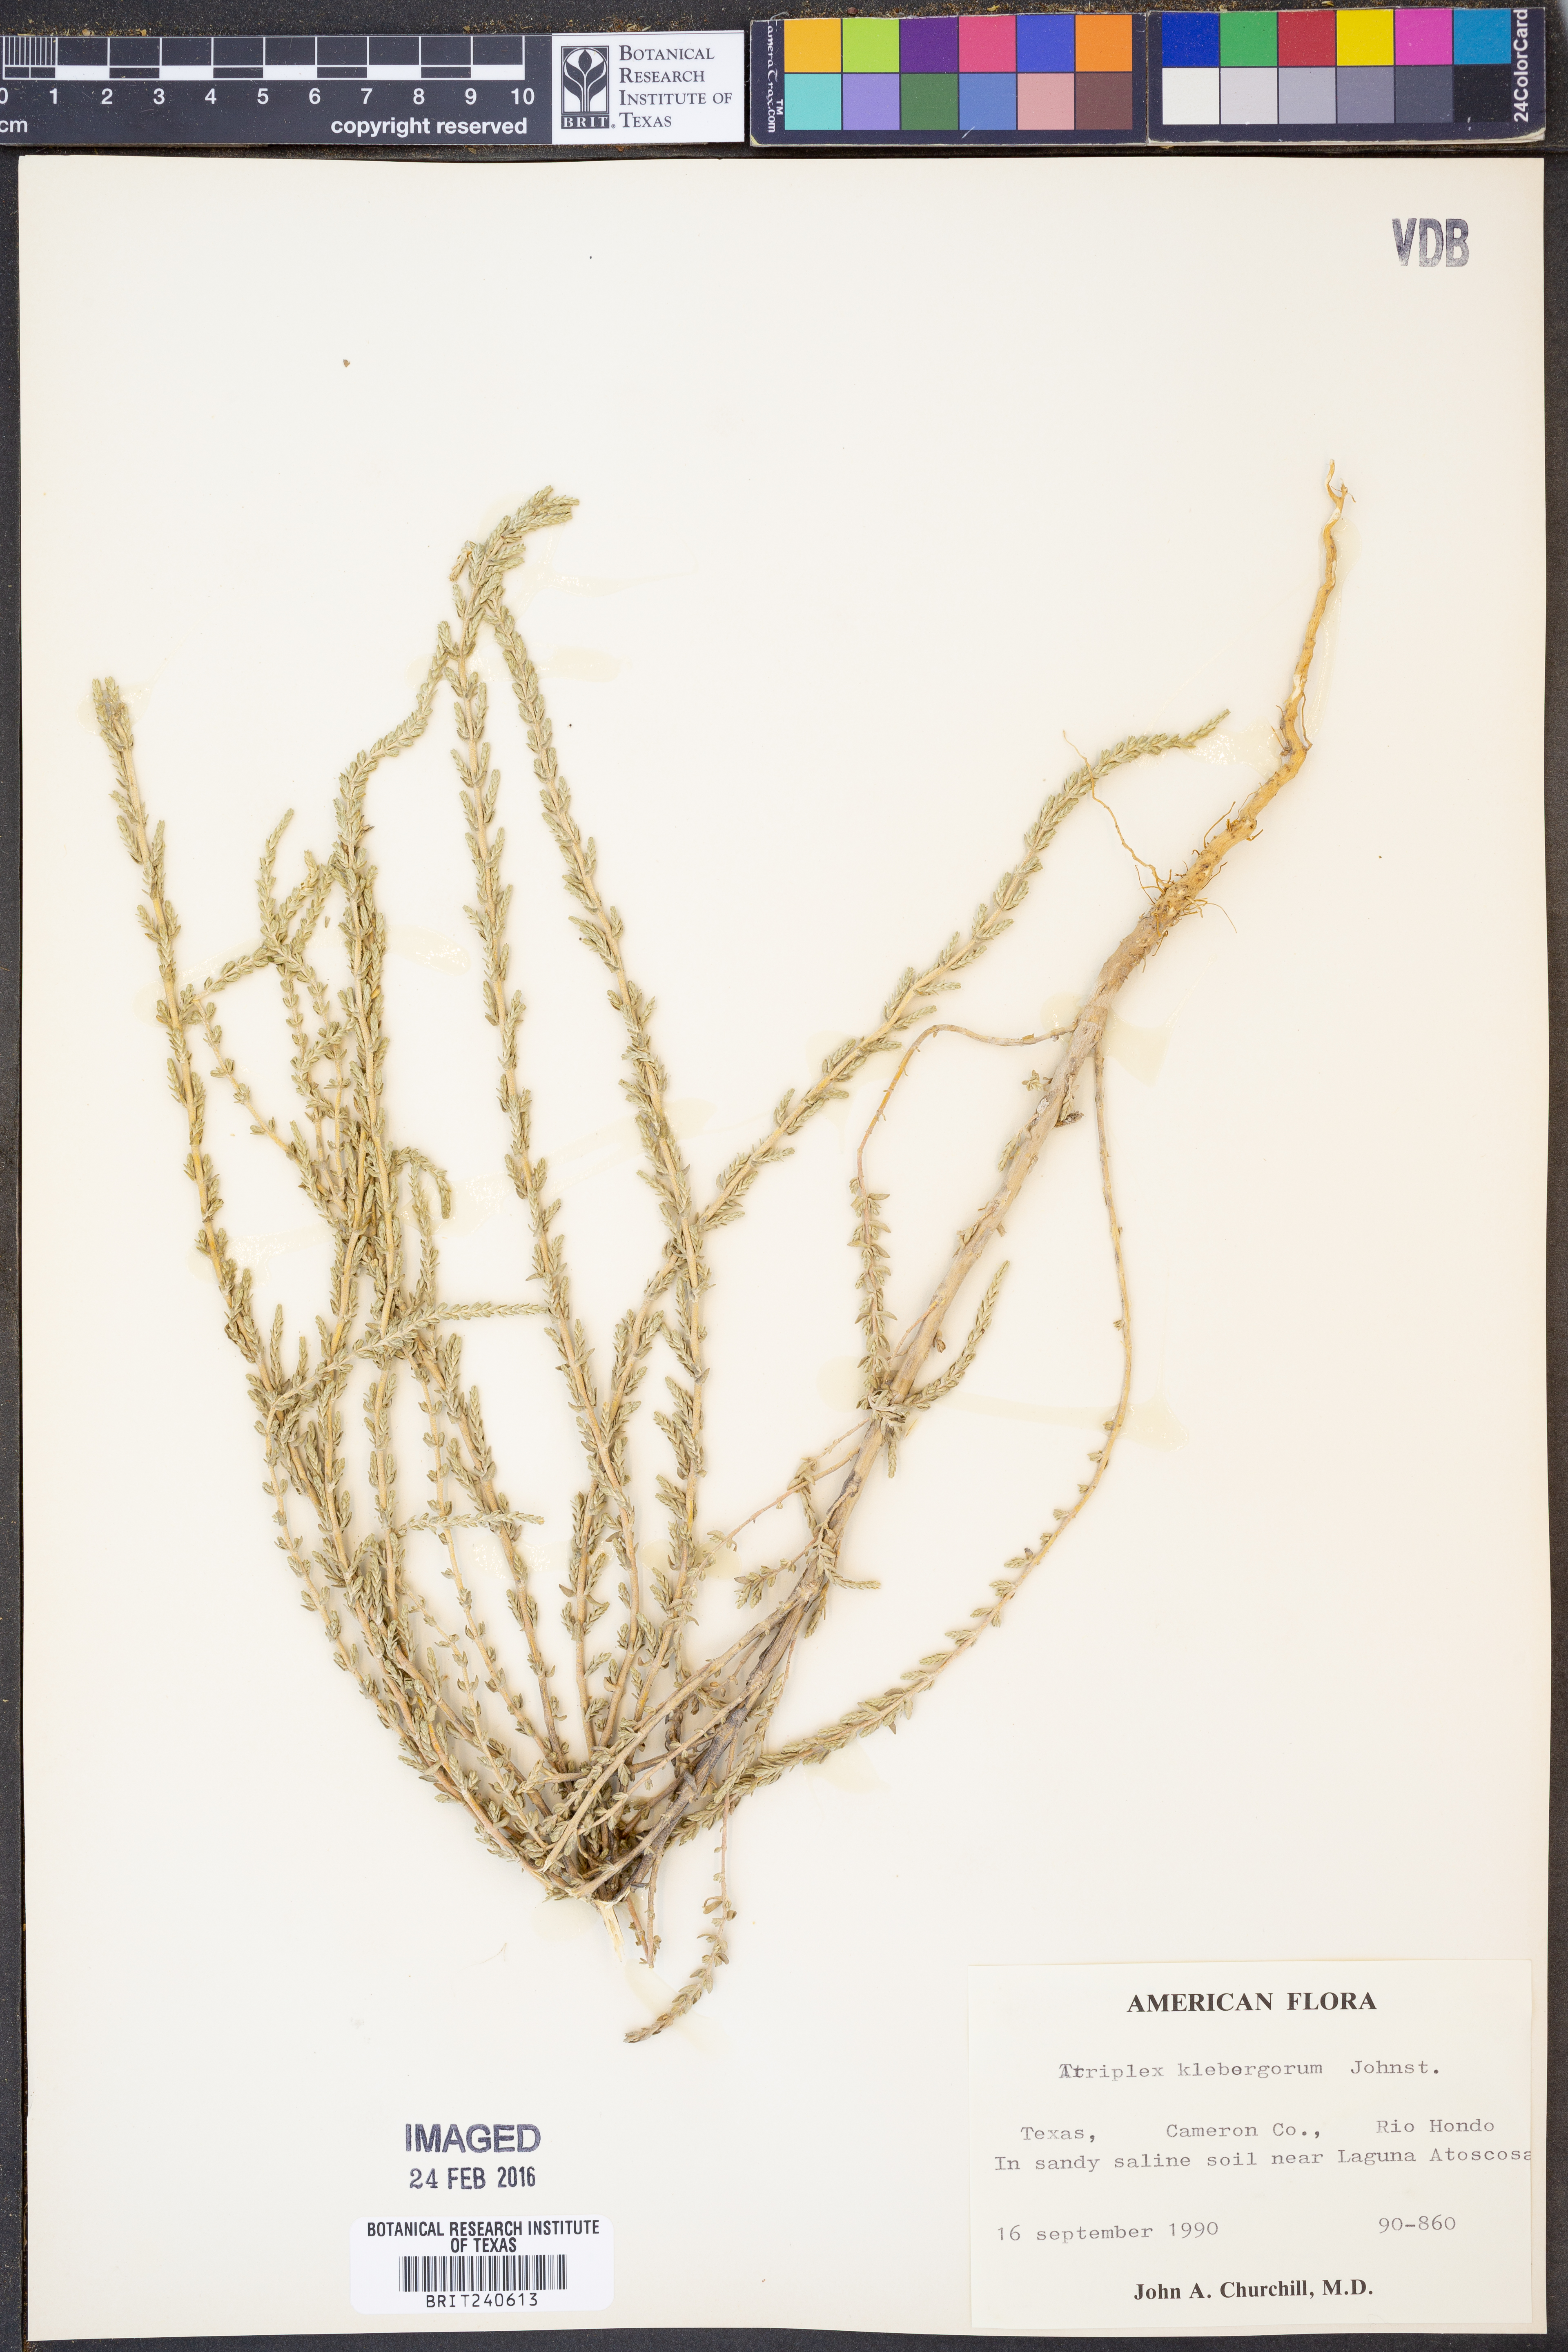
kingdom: Plantae
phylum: Tracheophyta
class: Magnoliopsida
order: Caryophyllales
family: Amaranthaceae
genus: Atriplex
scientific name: Atriplex klebergorum
